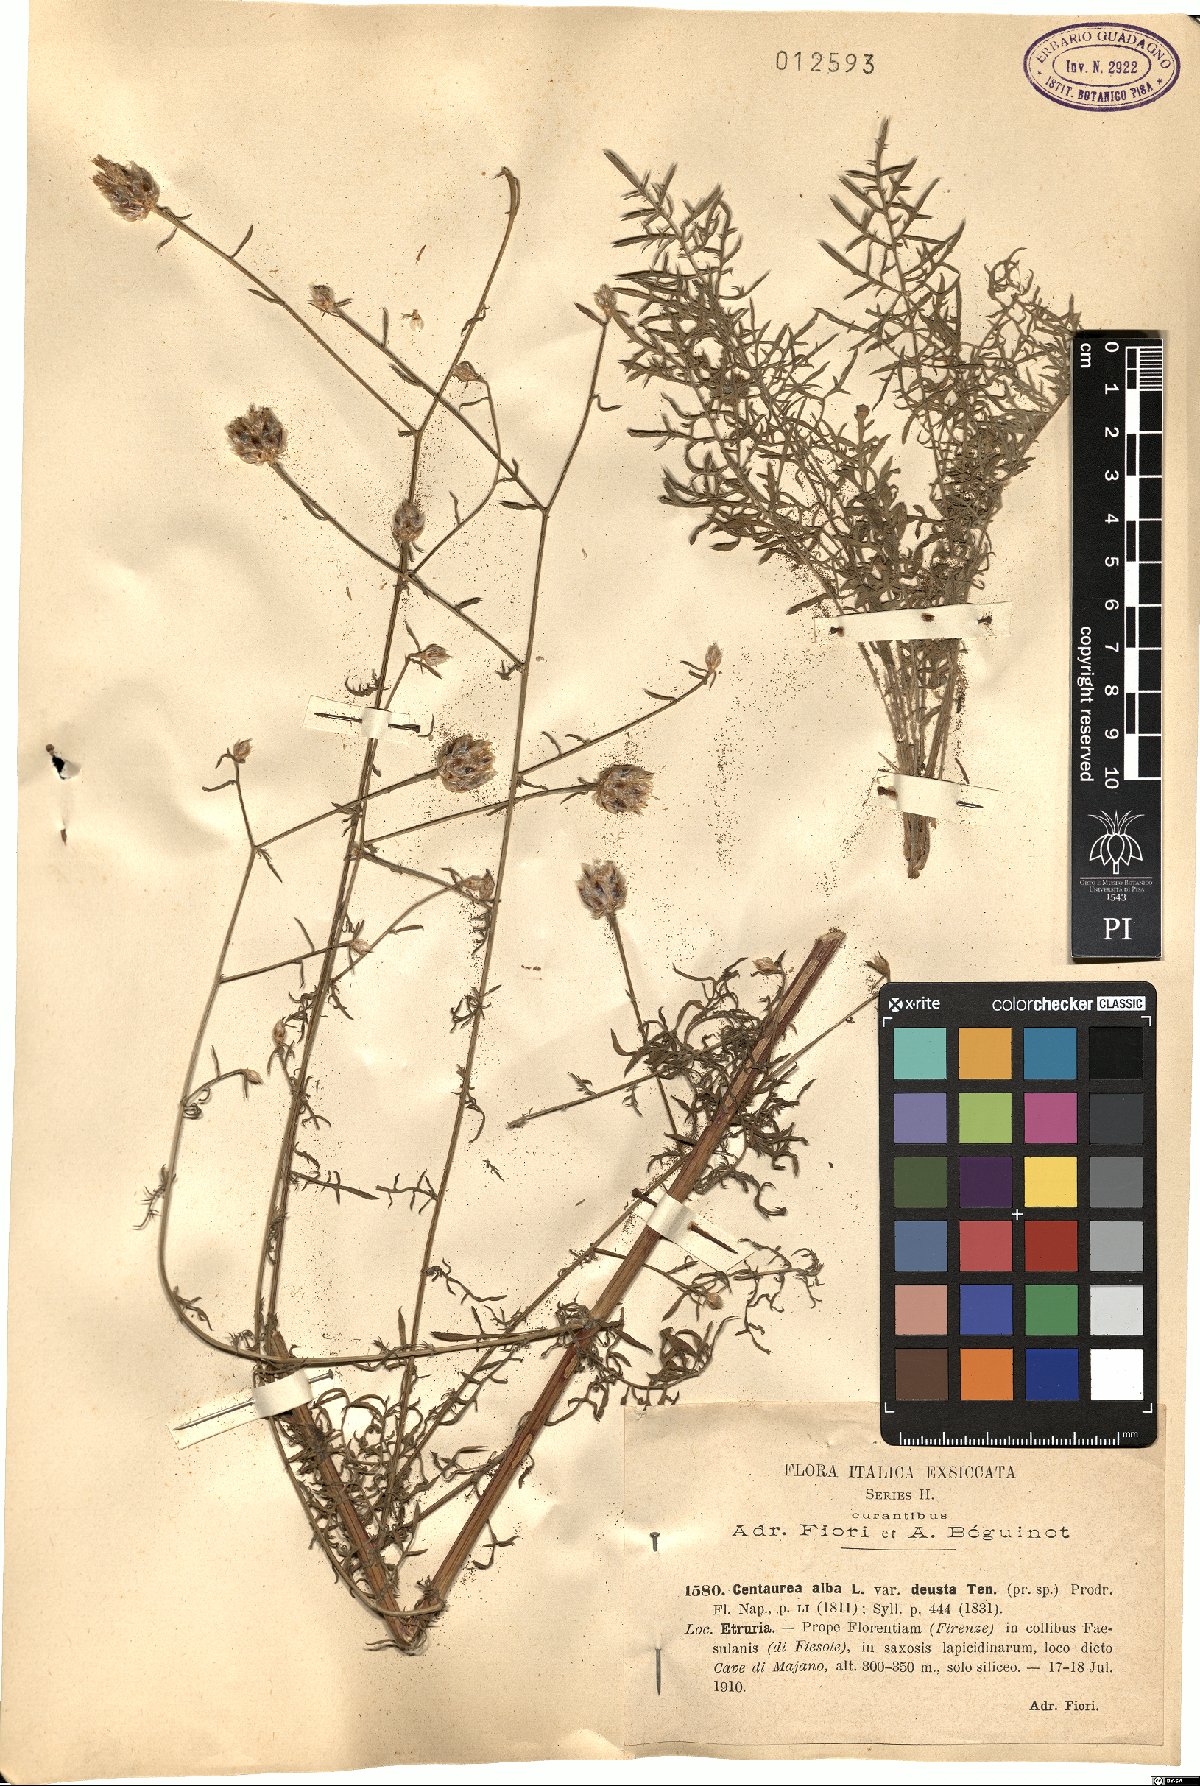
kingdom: Plantae
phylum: Tracheophyta
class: Magnoliopsida
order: Asterales
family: Asteraceae
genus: Centaurea
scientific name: Centaurea deusta
